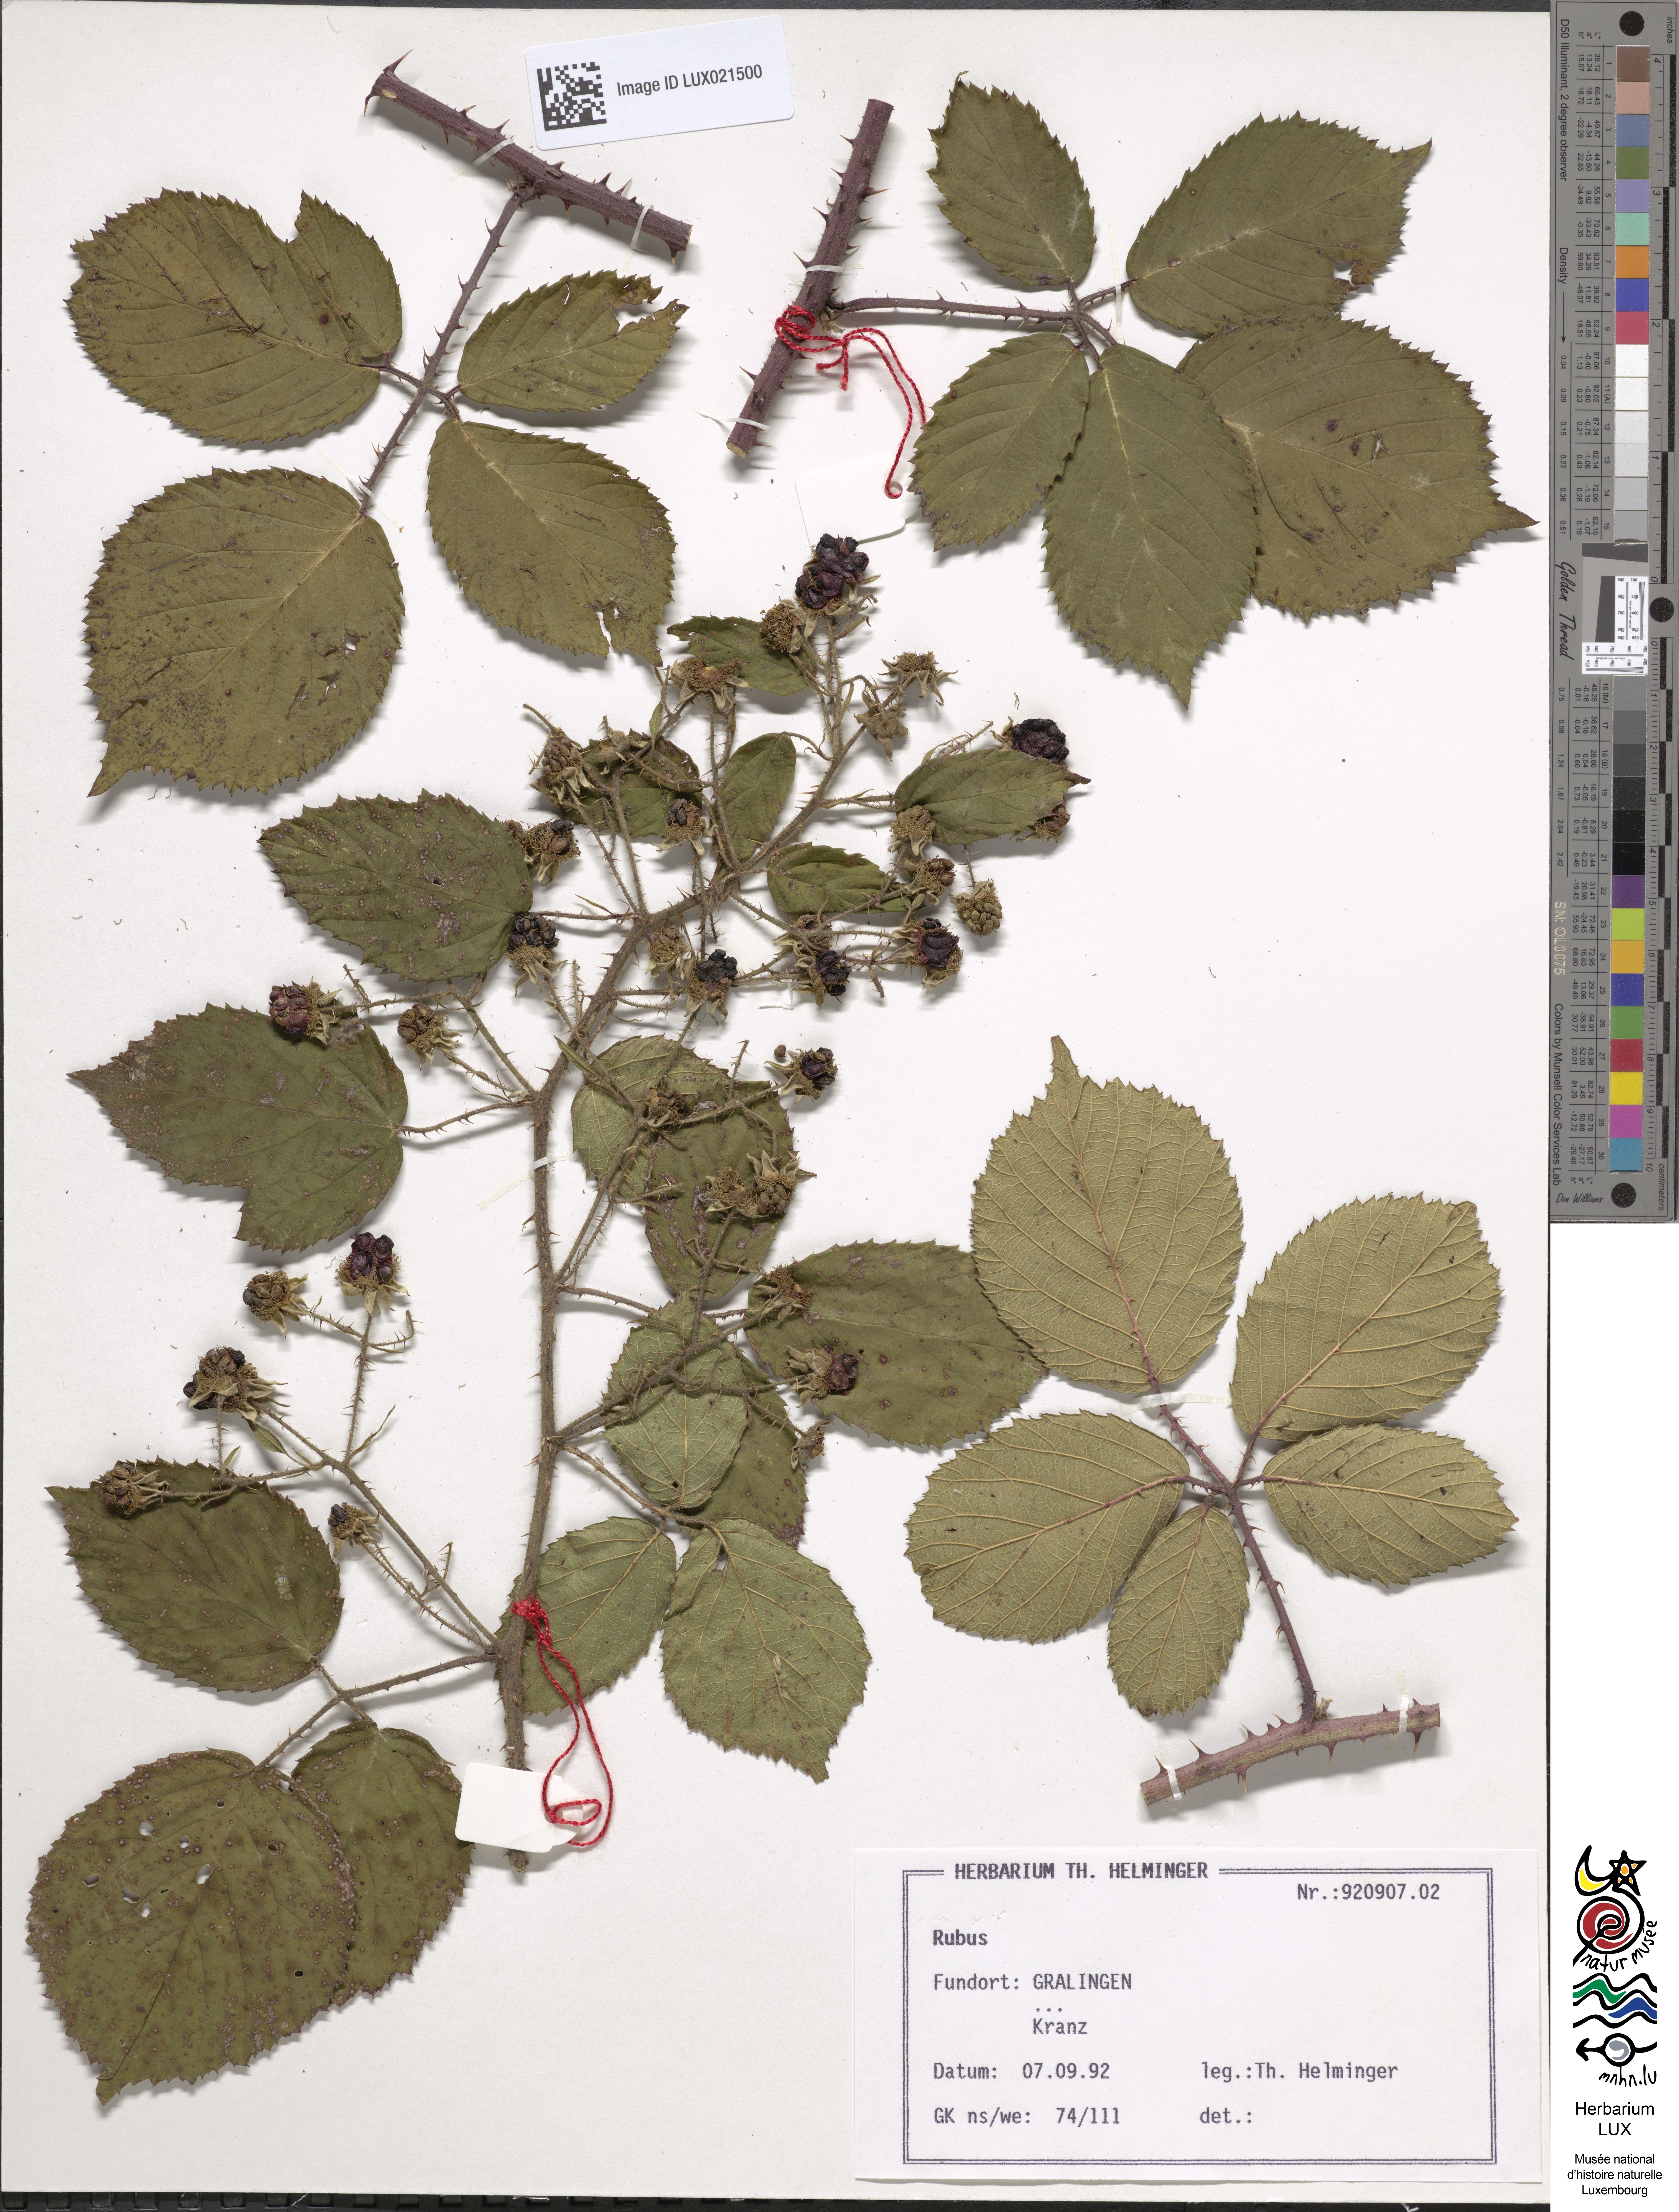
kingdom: Plantae
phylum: Tracheophyta
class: Magnoliopsida
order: Rosales
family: Rosaceae
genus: Rubus
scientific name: Rubus
